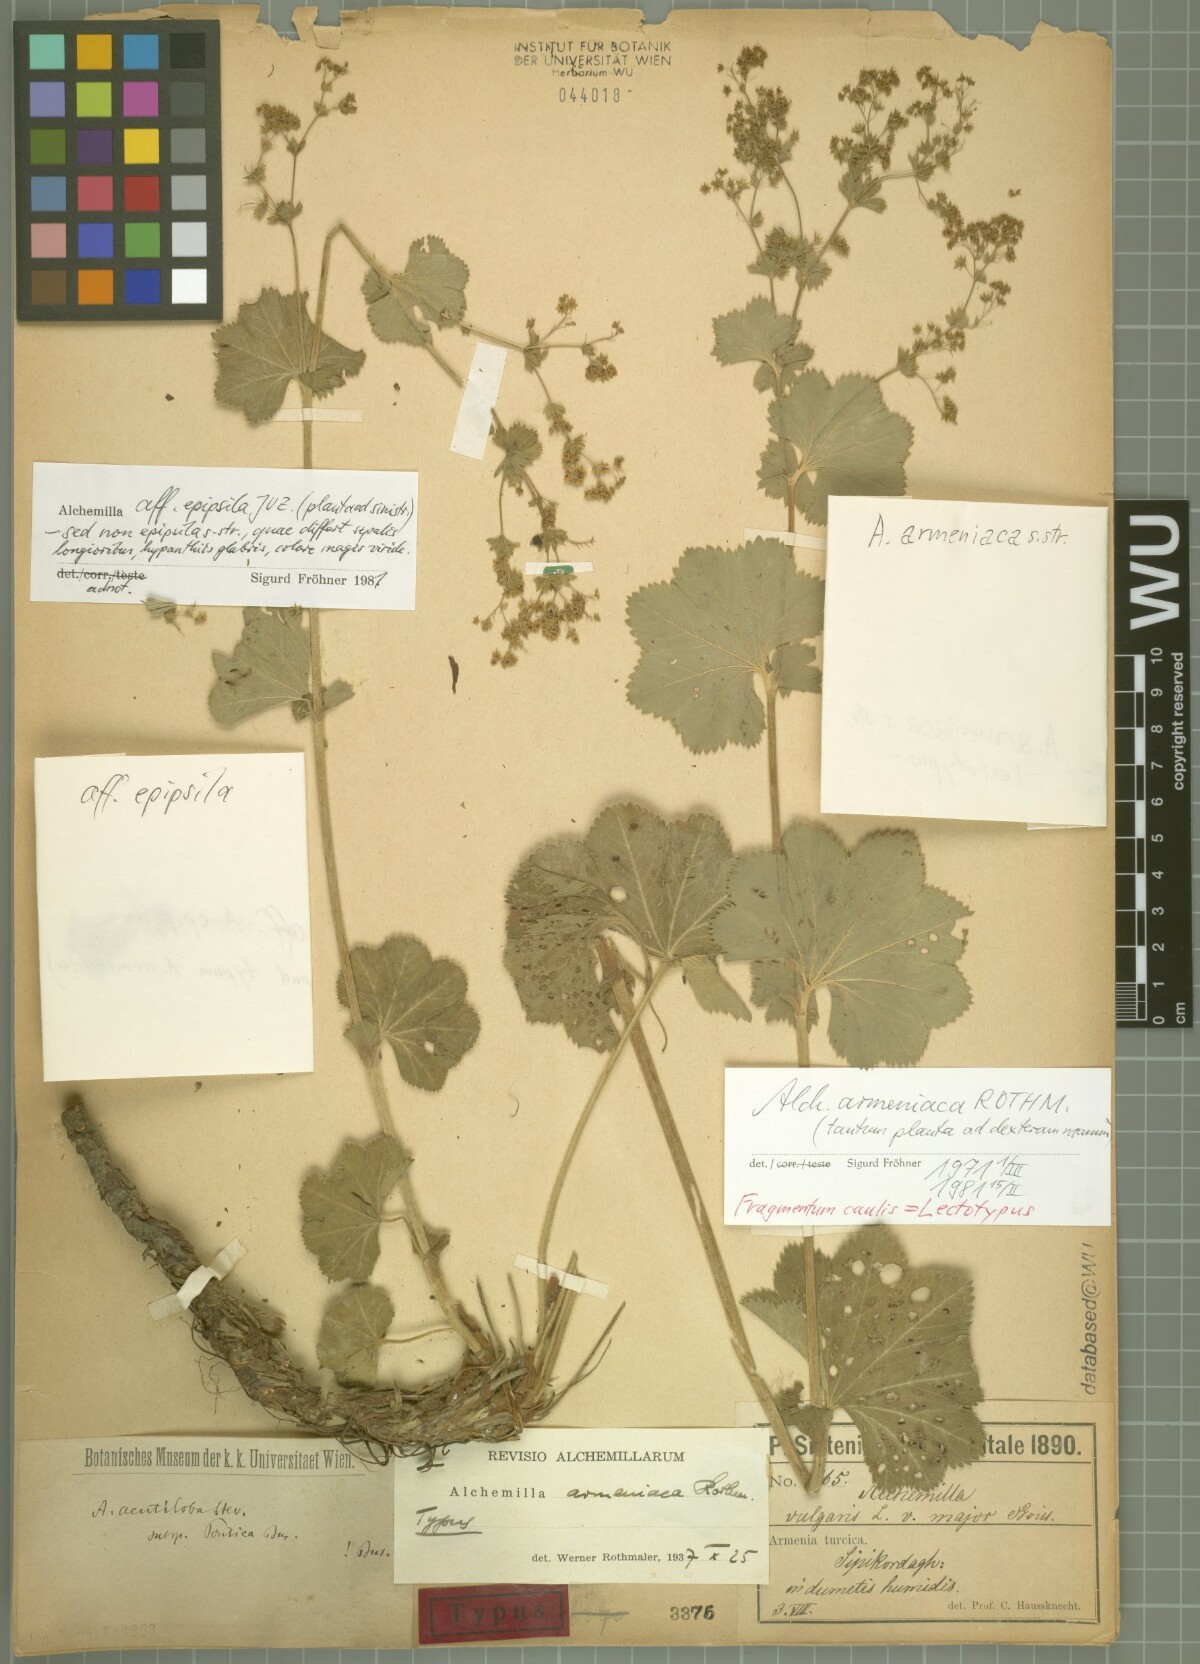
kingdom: Plantae
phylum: Tracheophyta
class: Magnoliopsida
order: Rosales
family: Rosaceae
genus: Alchemilla
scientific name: Alchemilla armeniaca
